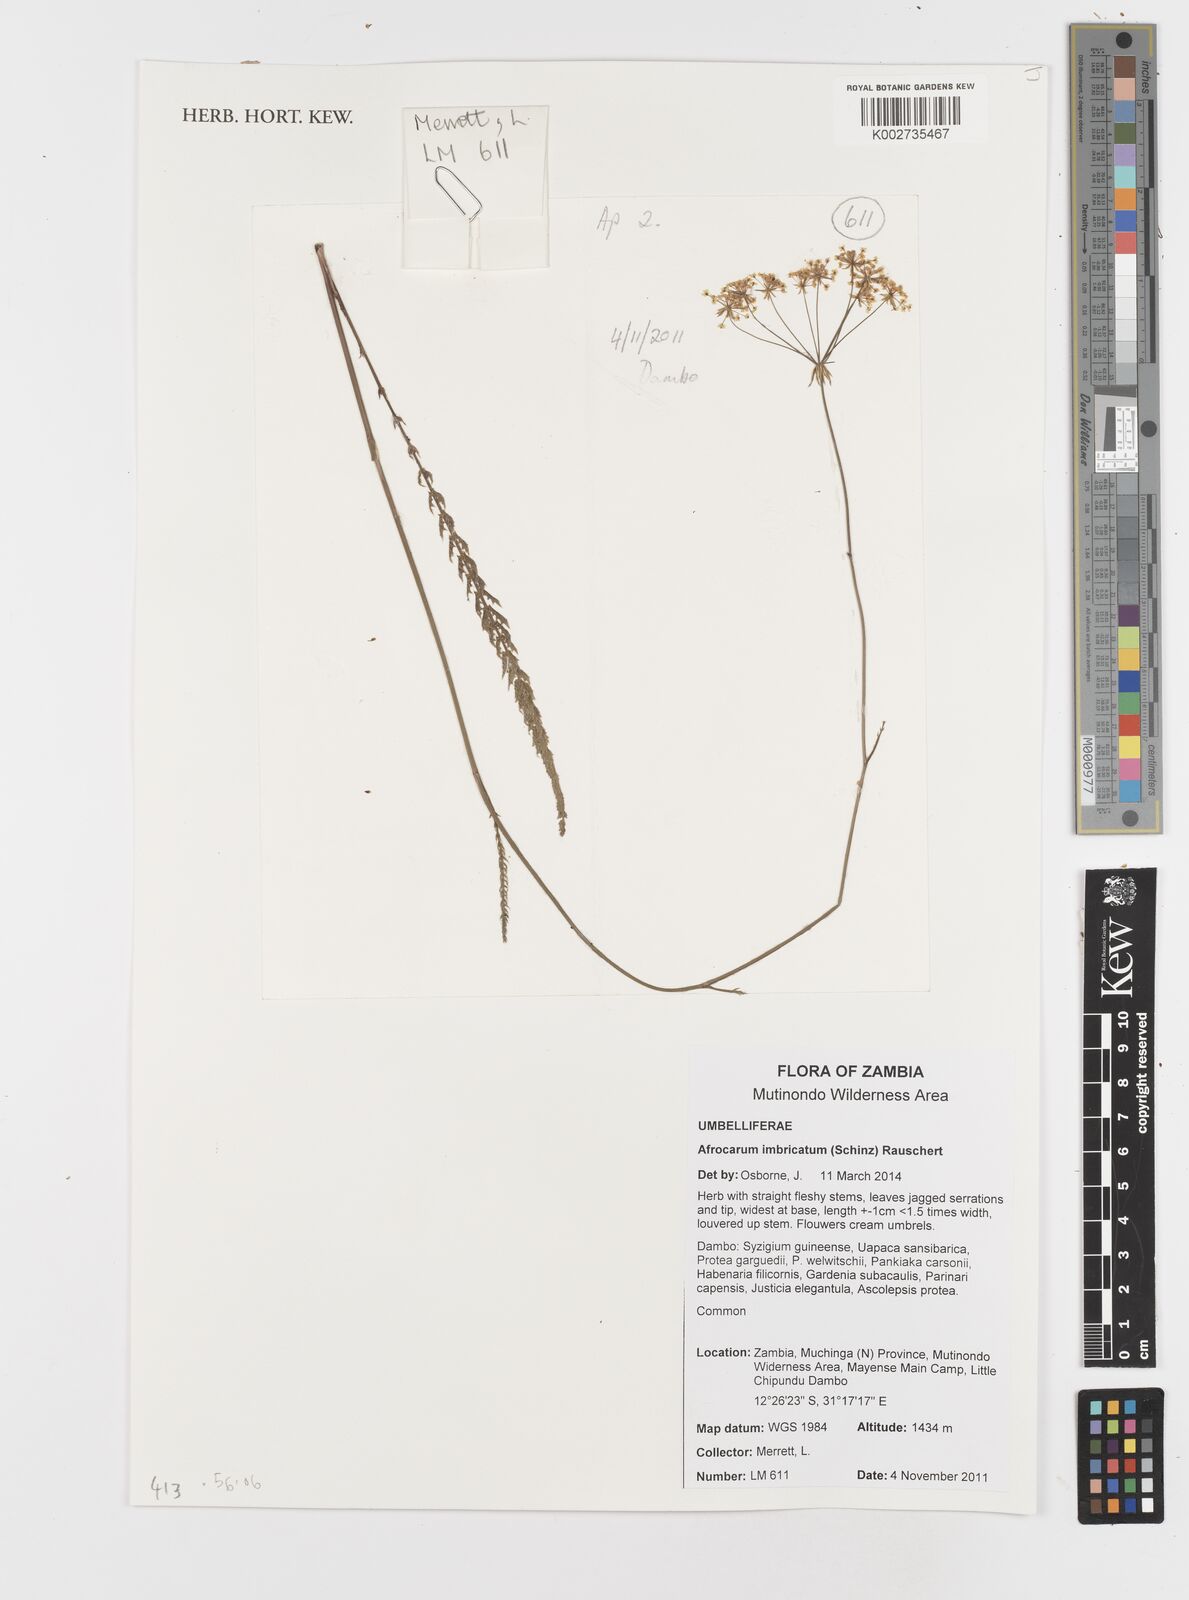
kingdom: Plantae
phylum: Tracheophyta
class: Magnoliopsida
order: Apiales
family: Apiaceae
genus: Berula
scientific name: Berula imbricata
